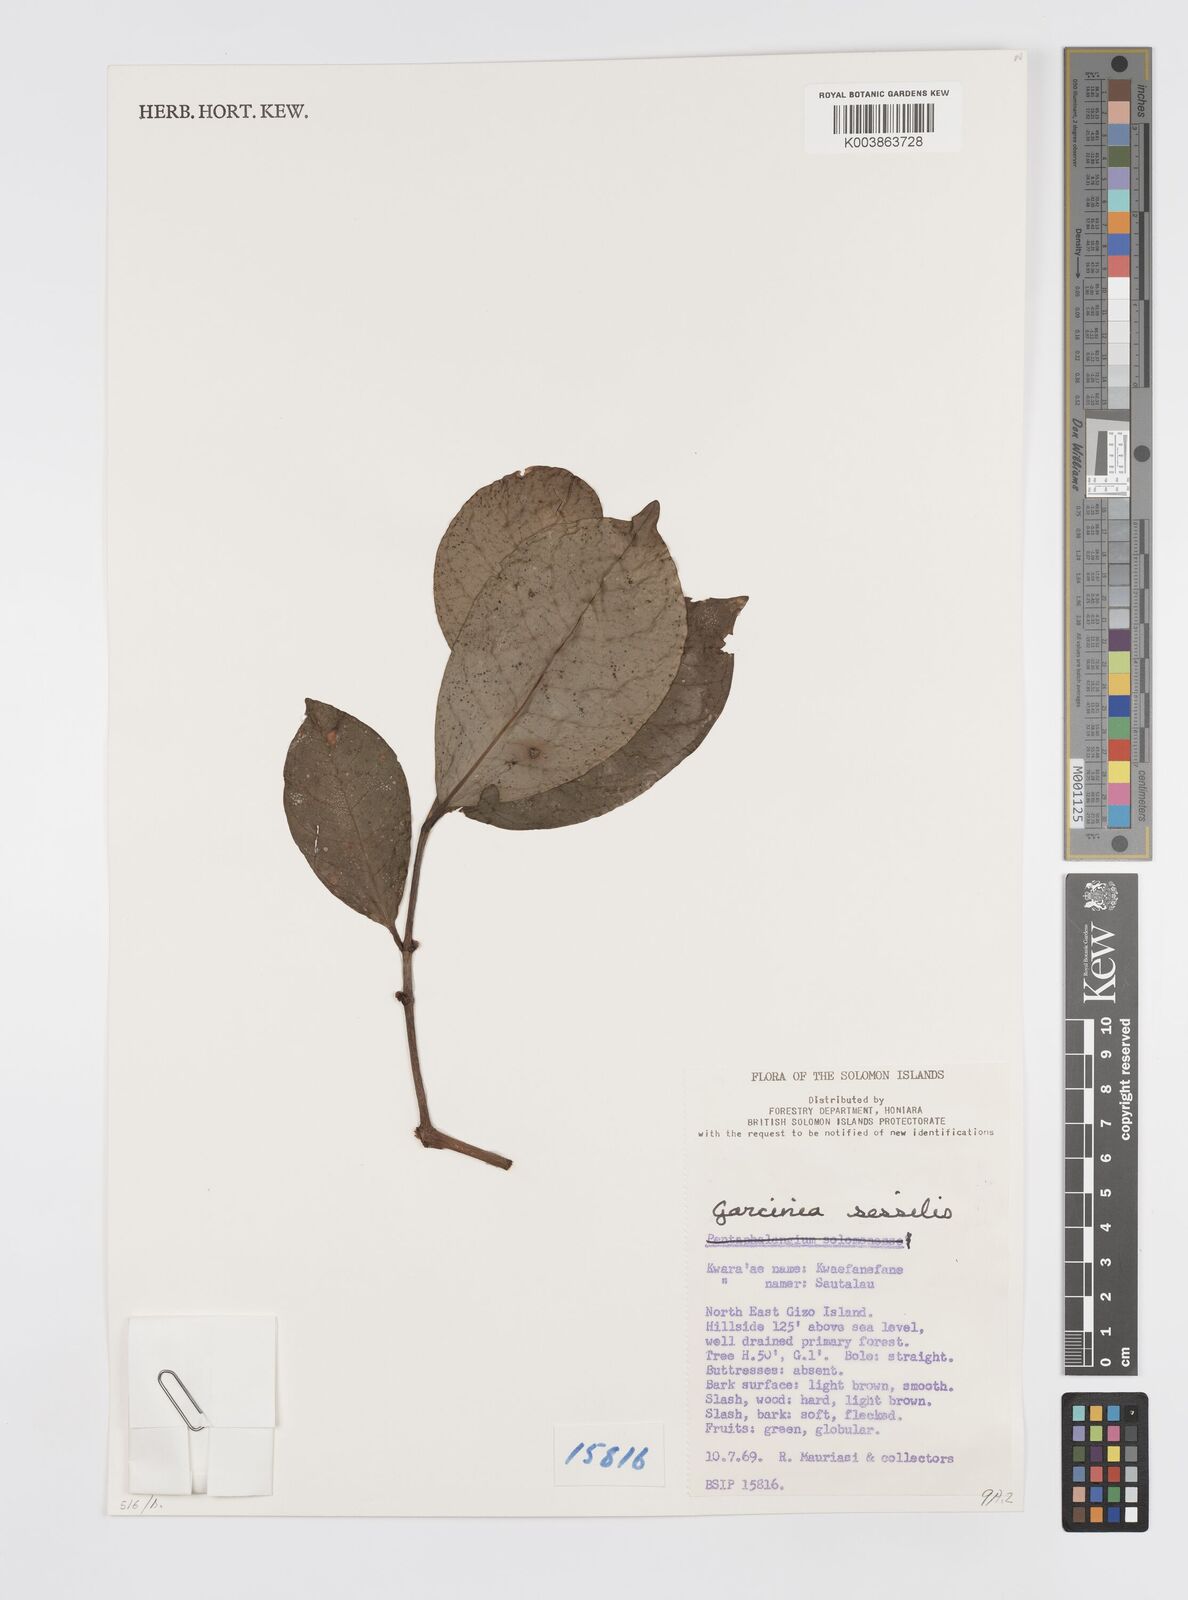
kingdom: Plantae
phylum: Tracheophyta
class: Magnoliopsida
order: Malpighiales
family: Clusiaceae
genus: Garcinia
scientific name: Garcinia sessilis
